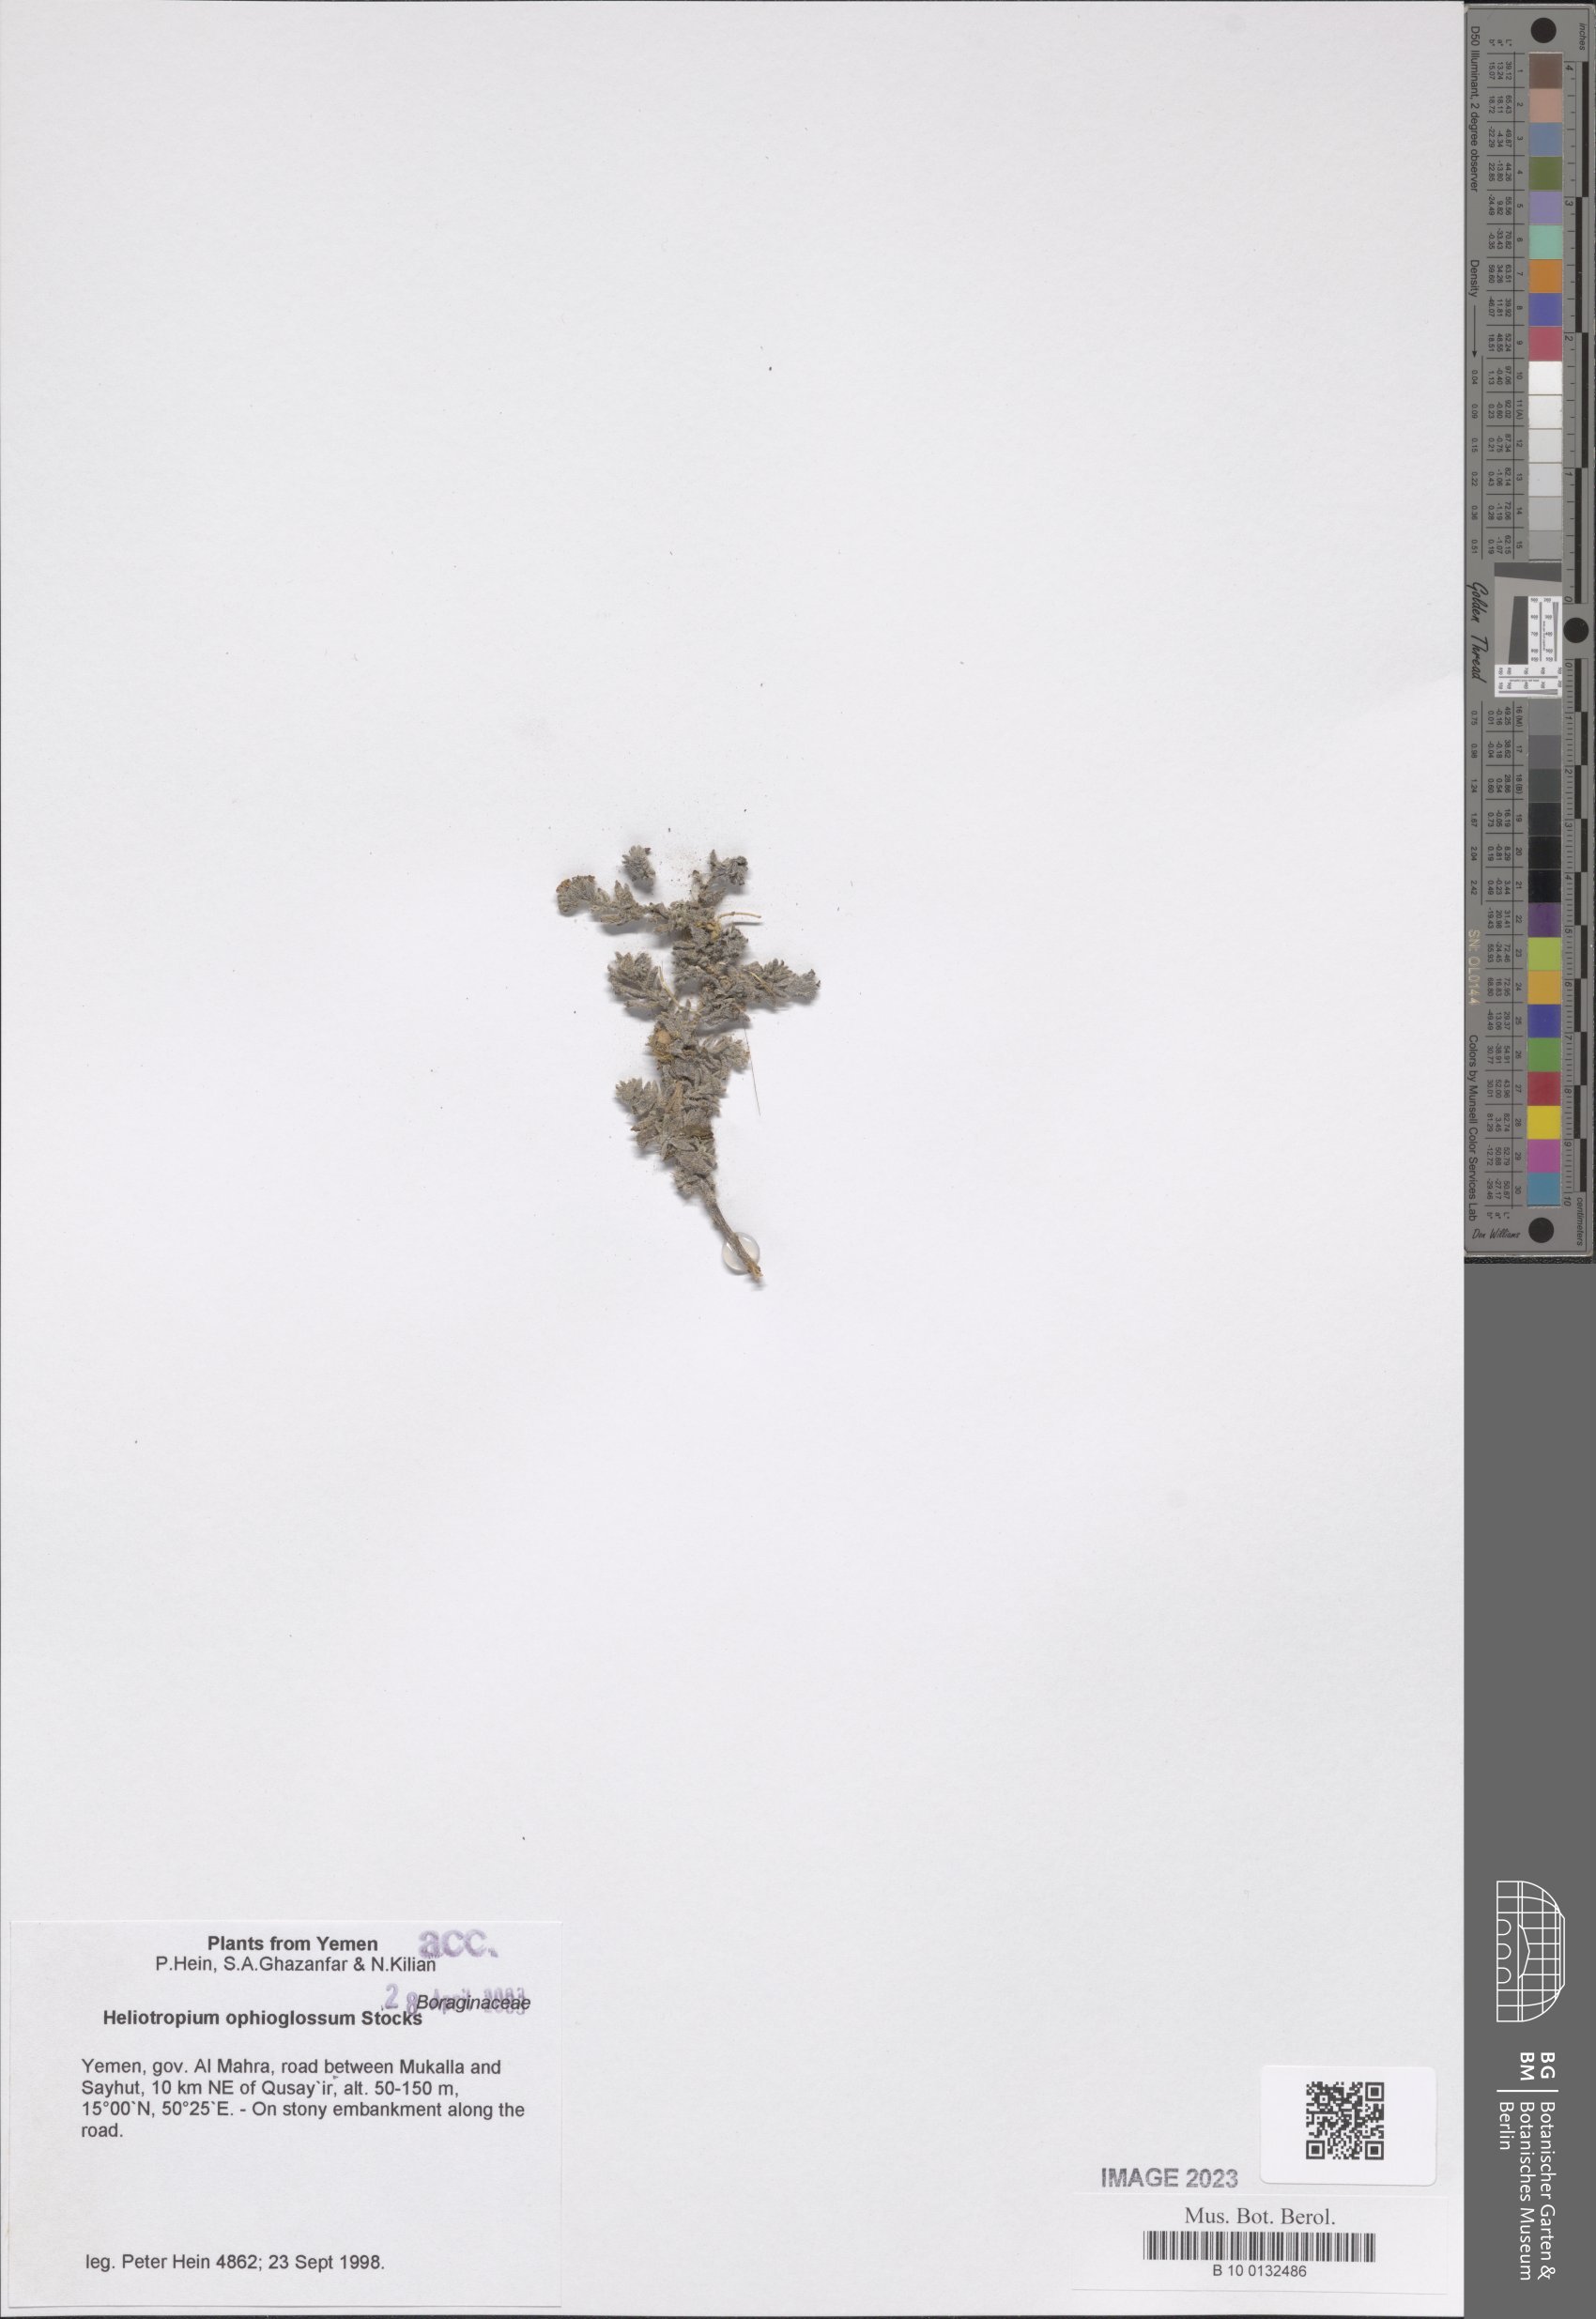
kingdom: Plantae
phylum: Tracheophyta
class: Magnoliopsida
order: Boraginales
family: Heliotropiaceae
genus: Heliotropium
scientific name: Heliotropium ophioglossum
